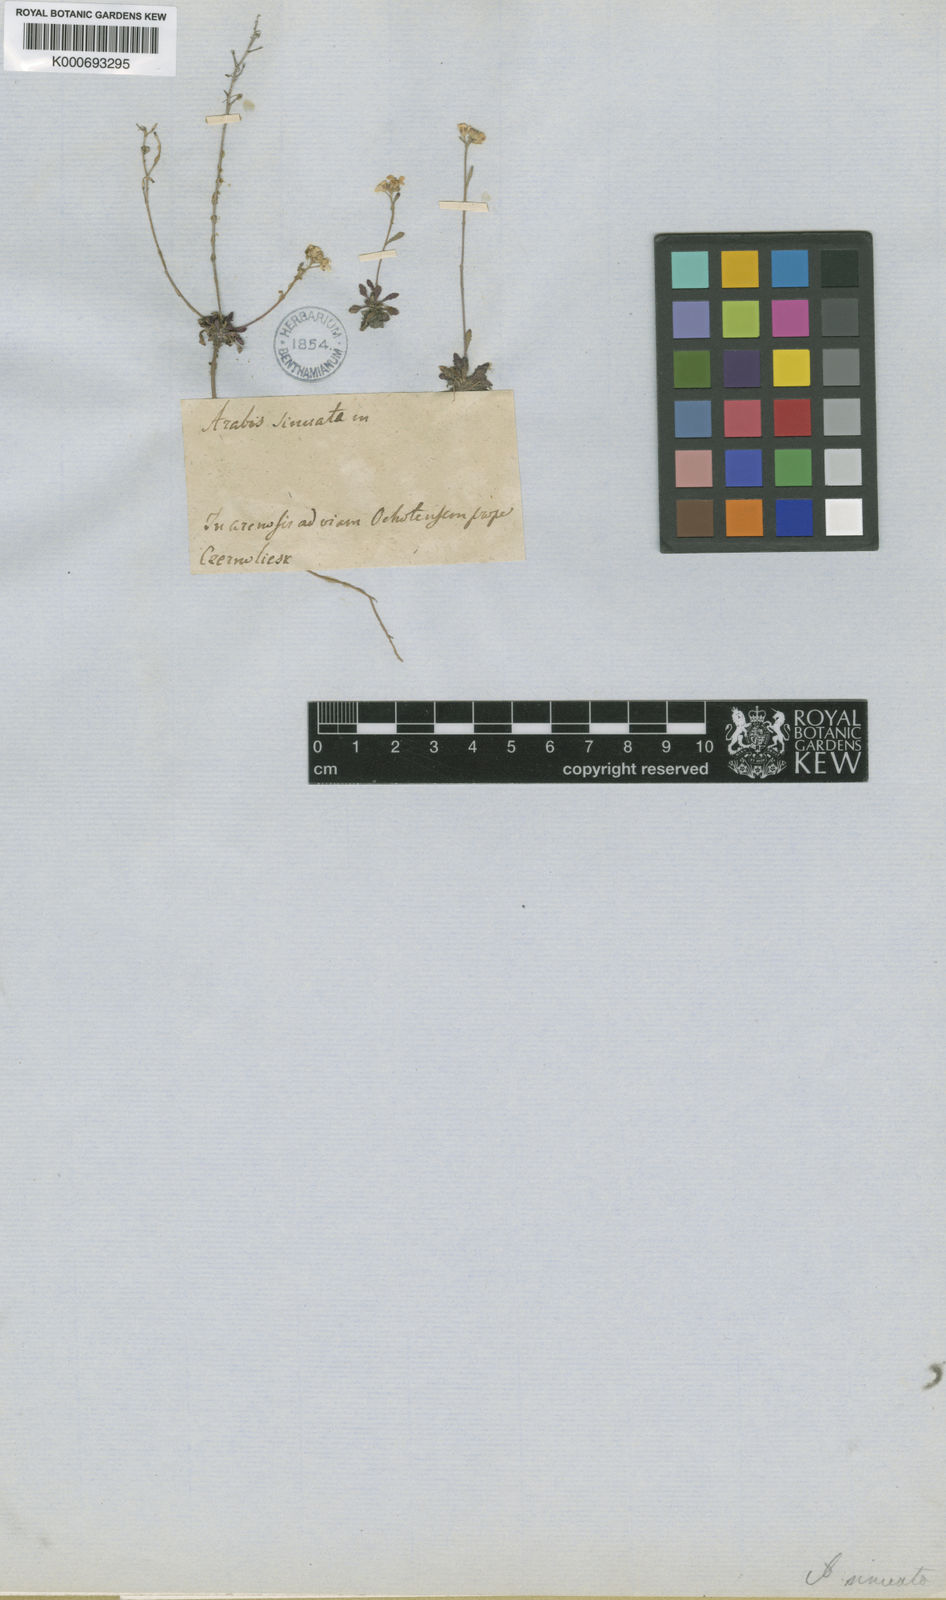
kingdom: Plantae
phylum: Tracheophyta
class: Magnoliopsida
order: Brassicales
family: Brassicaceae
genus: Braya
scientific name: Braya humilis
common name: Alpine northern rockcress
